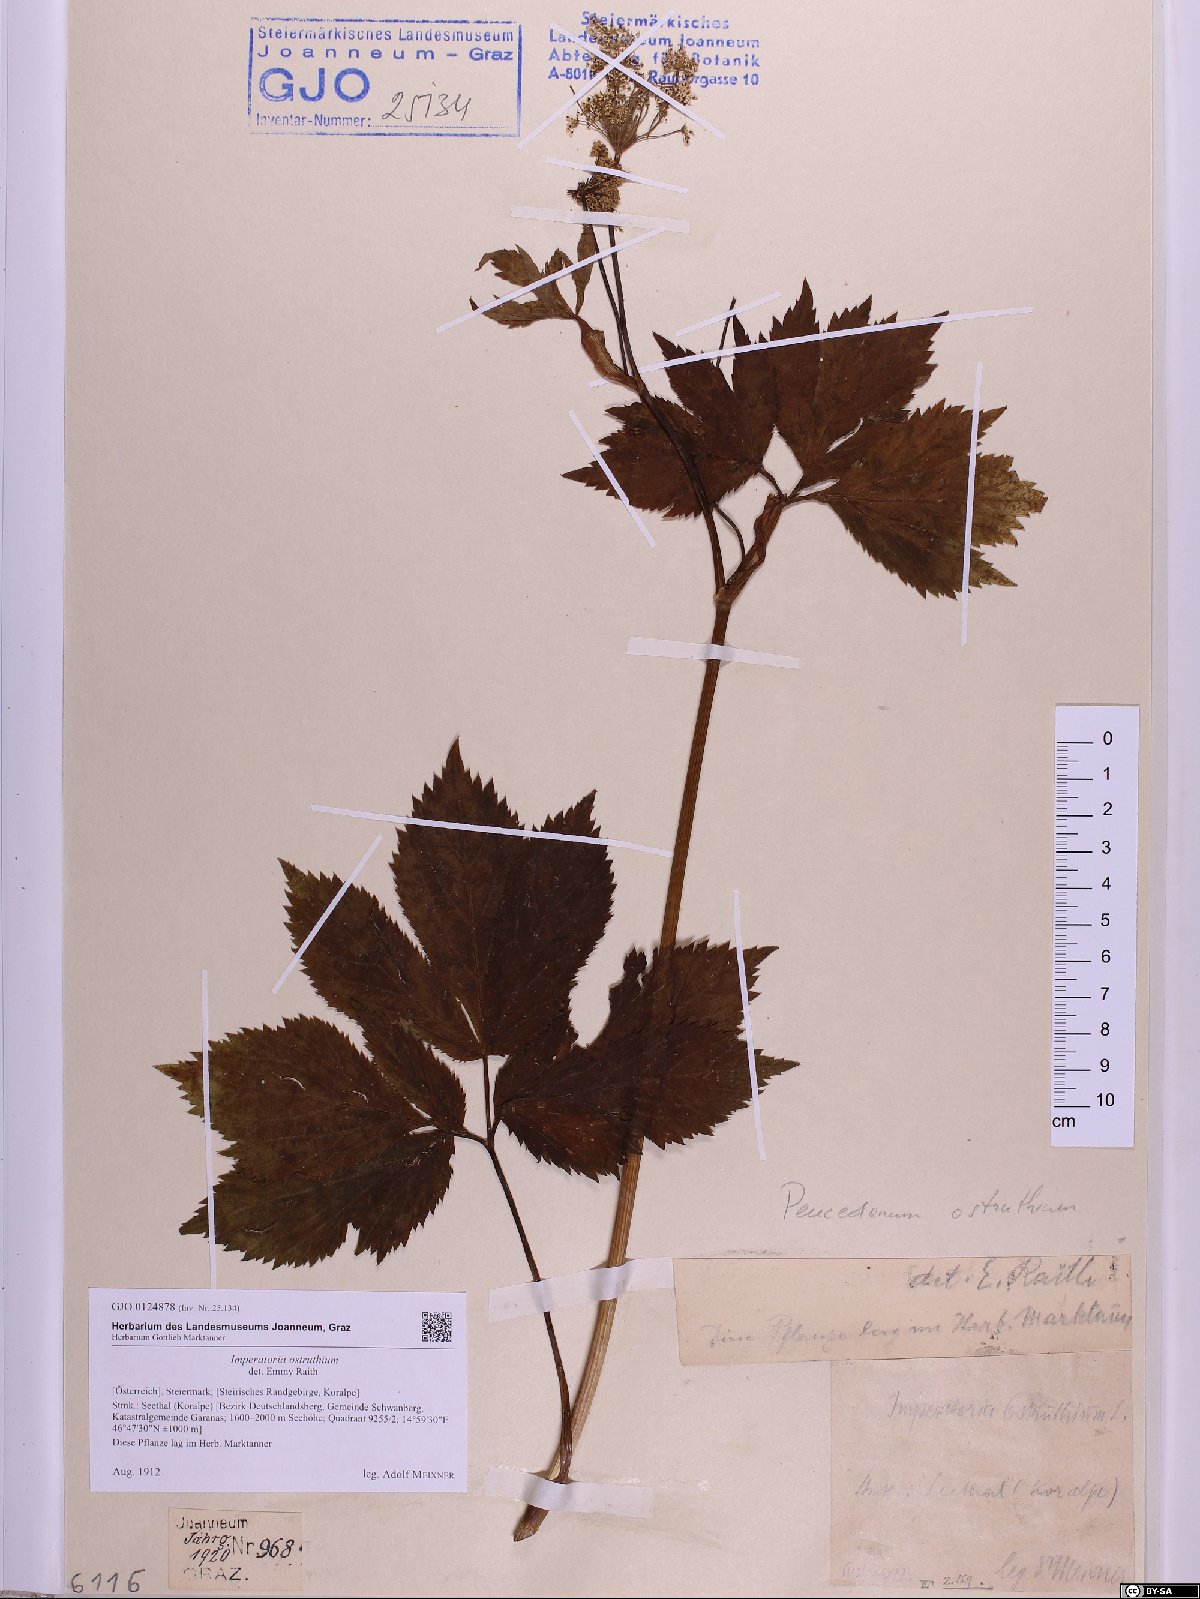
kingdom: Plantae
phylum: Tracheophyta
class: Magnoliopsida
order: Apiales
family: Apiaceae
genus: Imperatoria
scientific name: Imperatoria ostruthium
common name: Masterwort
